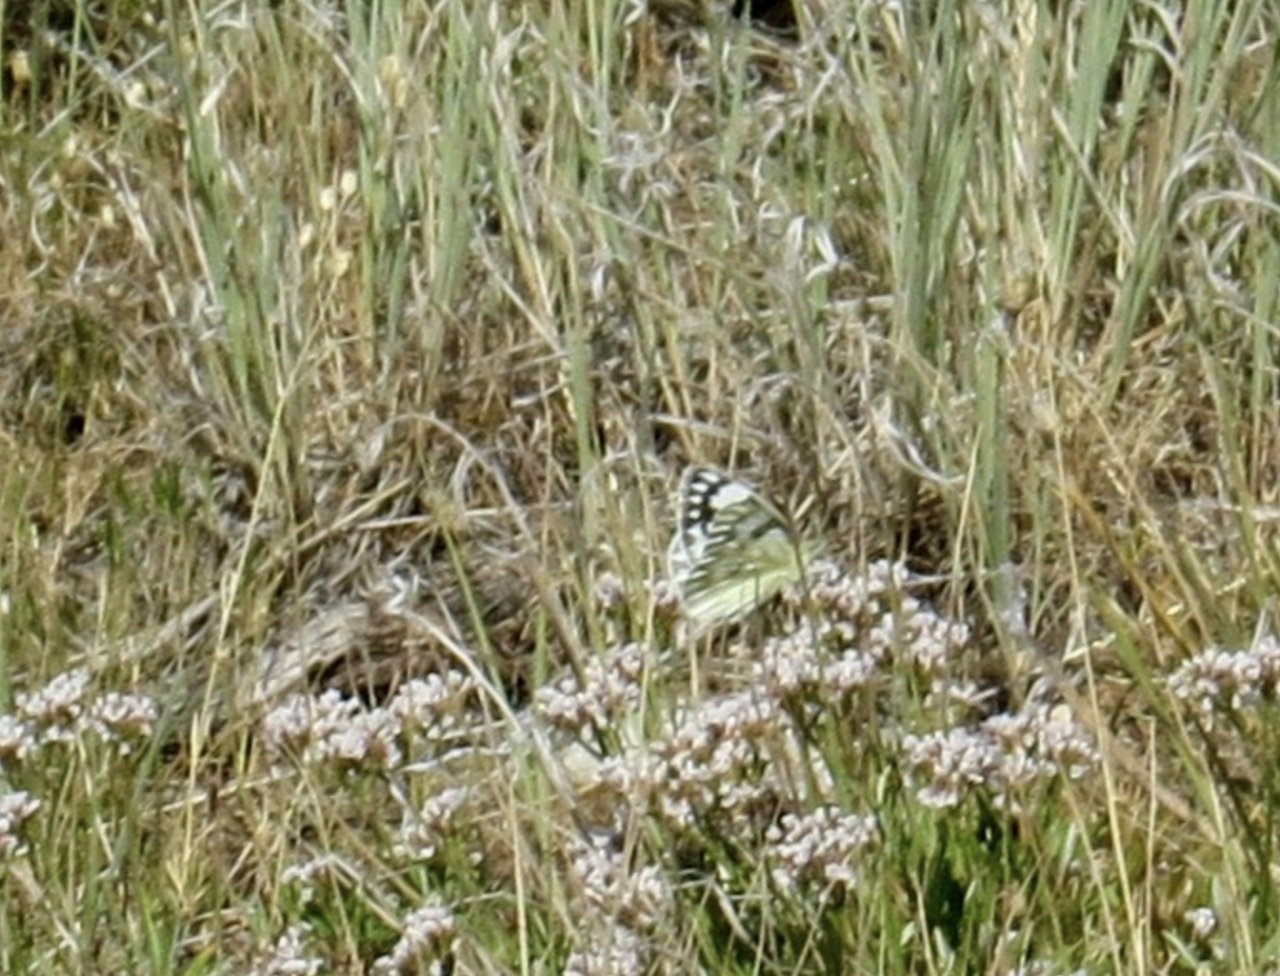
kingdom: Animalia
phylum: Arthropoda
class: Insecta
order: Lepidoptera
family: Pieridae
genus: Neophasia
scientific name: Neophasia menapia
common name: Pine White
